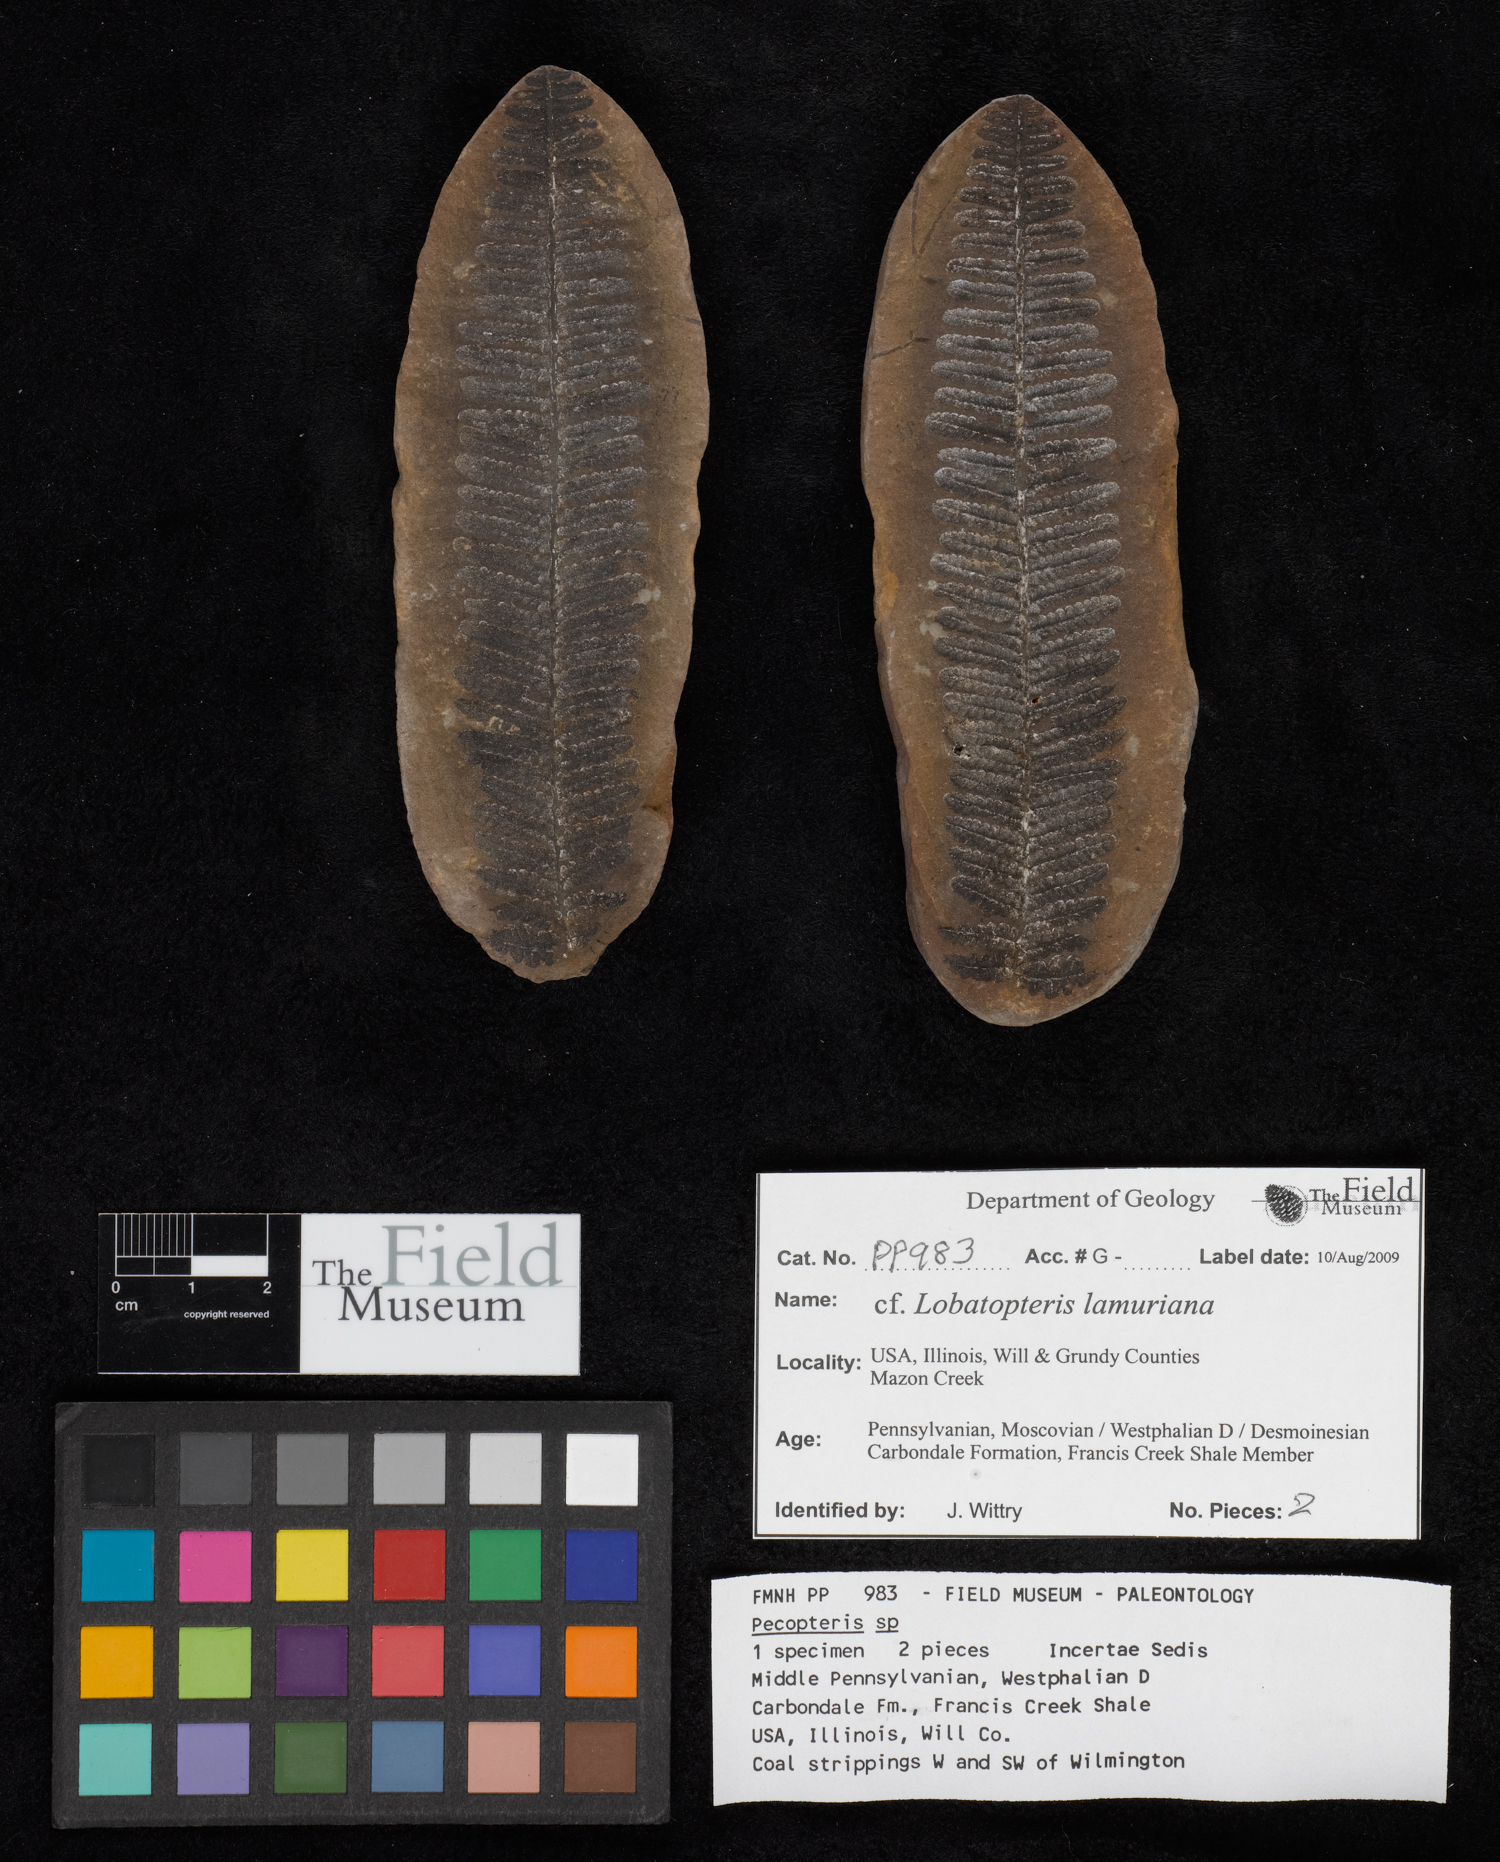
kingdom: Plantae
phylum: Tracheophyta
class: Polypodiopsida
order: Marattiales
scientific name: Marattiales
